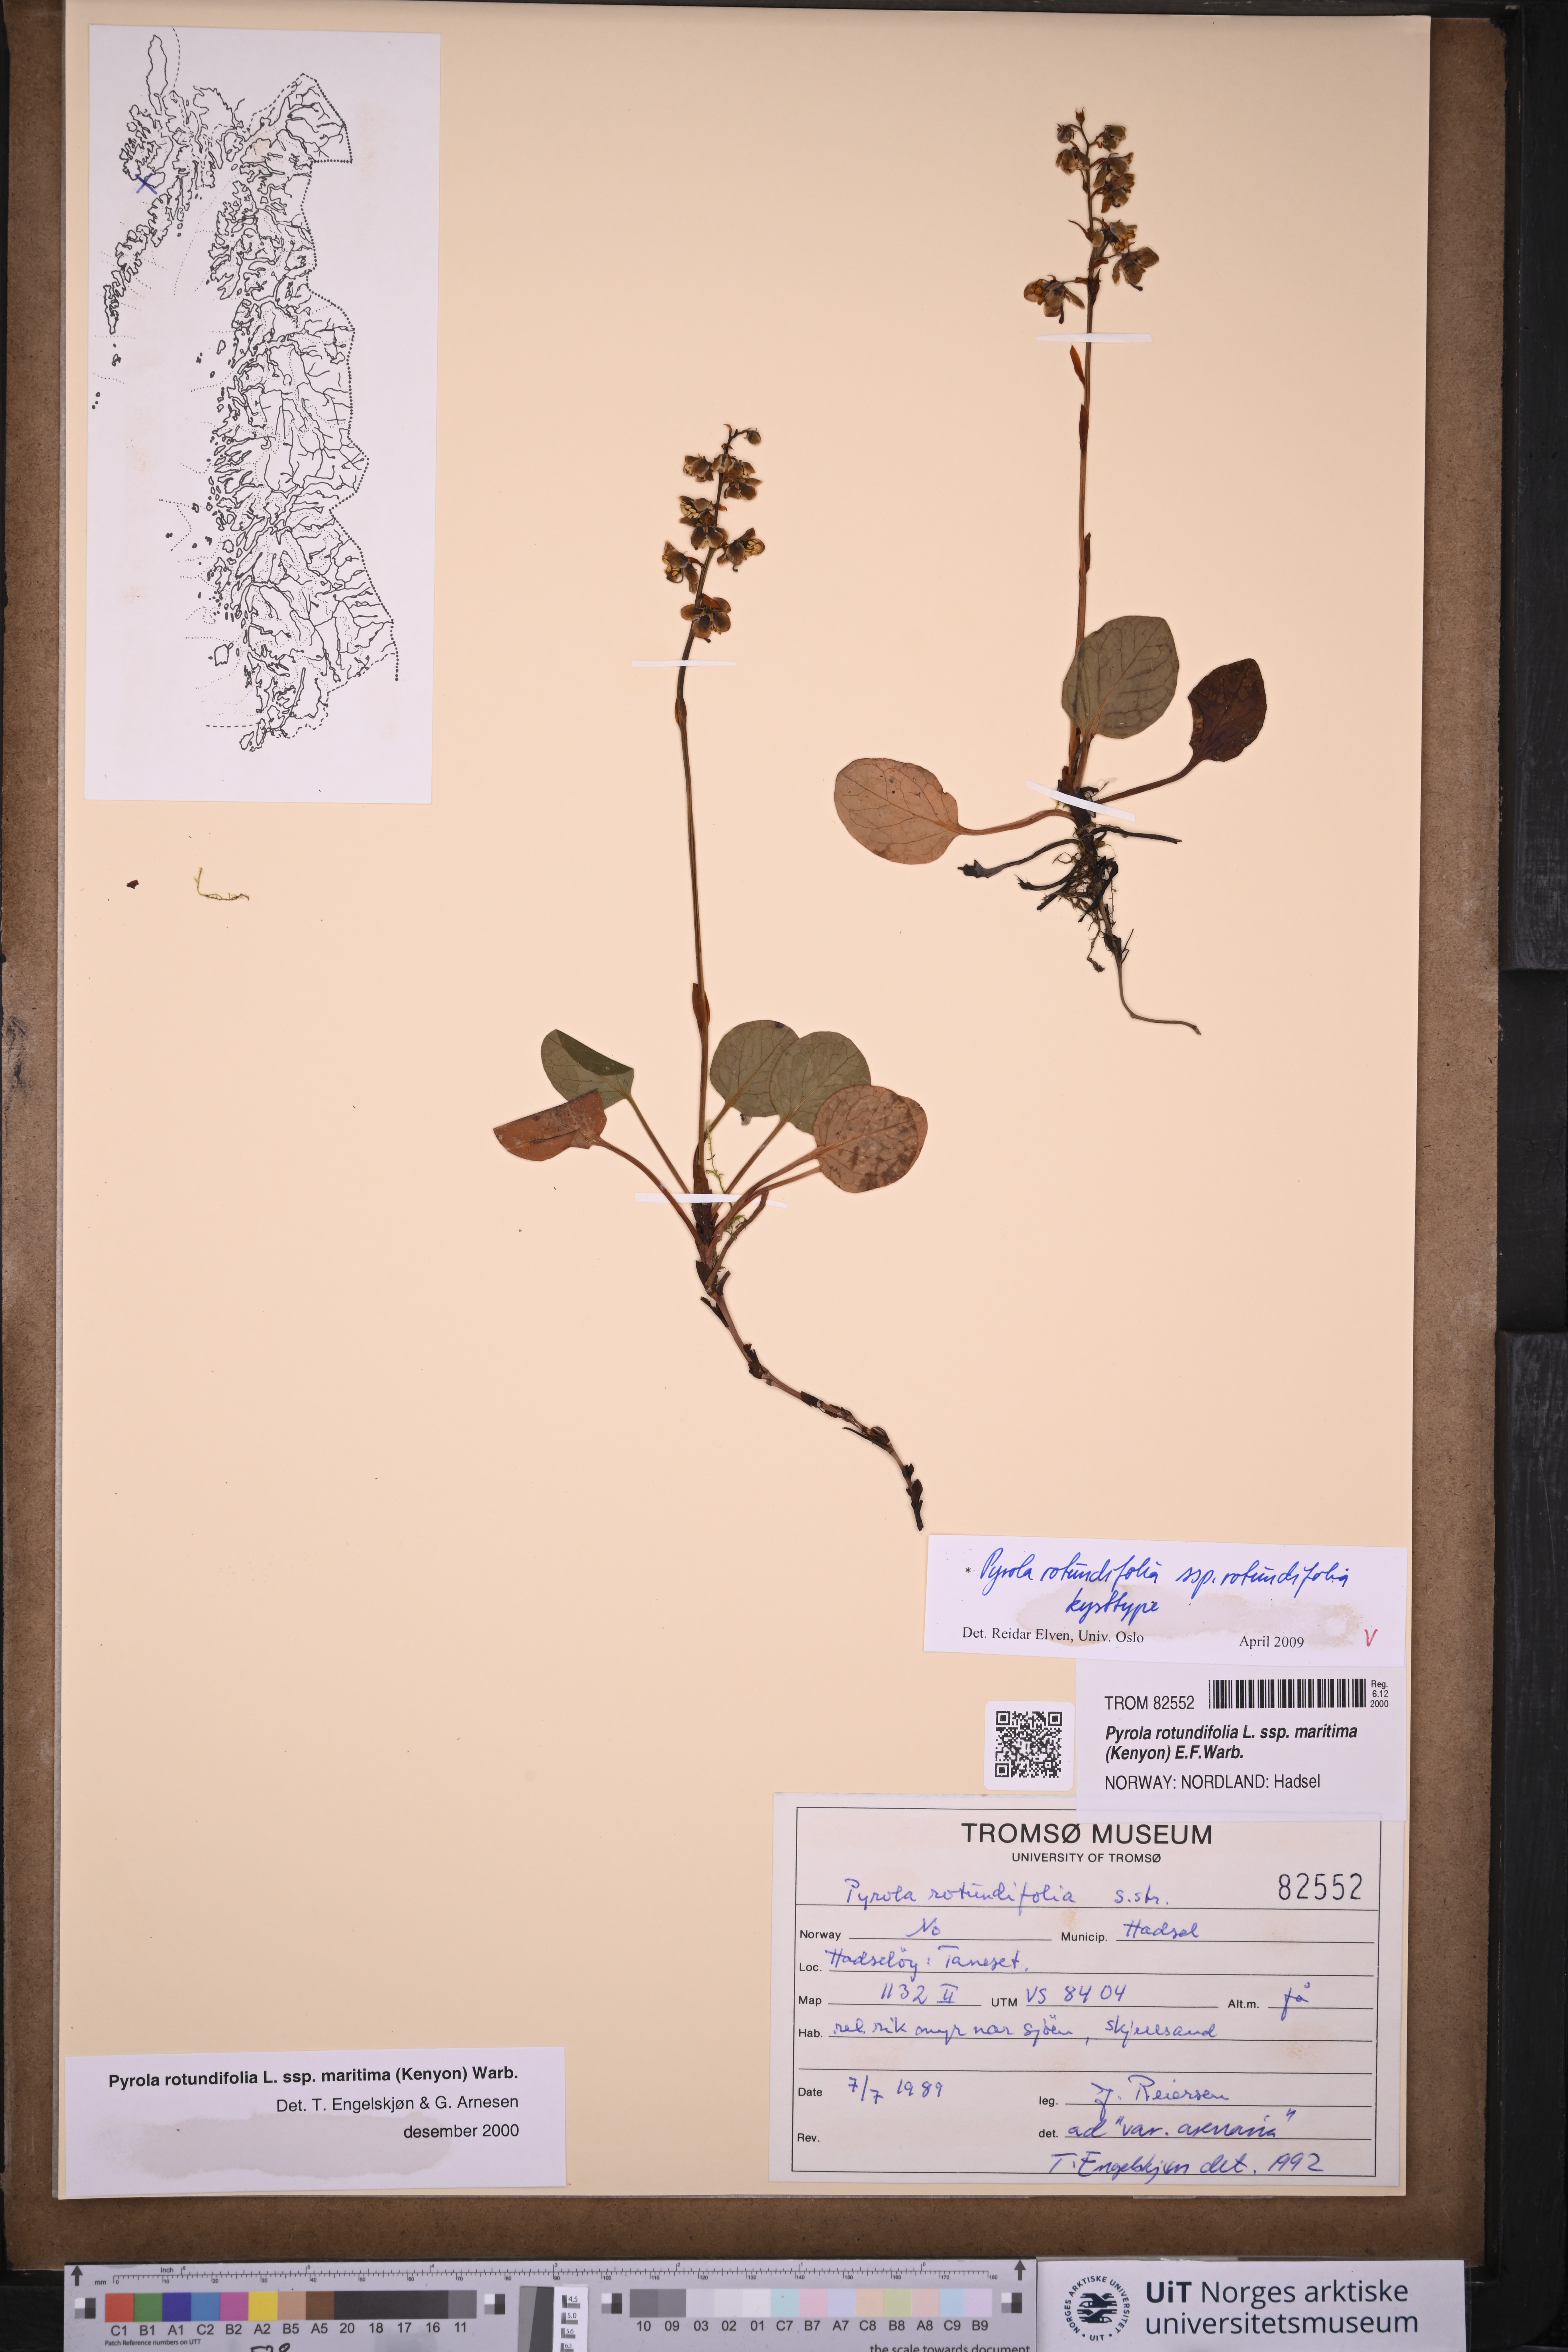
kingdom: Plantae
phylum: Tracheophyta
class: Magnoliopsida
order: Ericales
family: Ericaceae
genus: Pyrola
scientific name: Pyrola rotundifolia
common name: Round-leaved wintergreen
